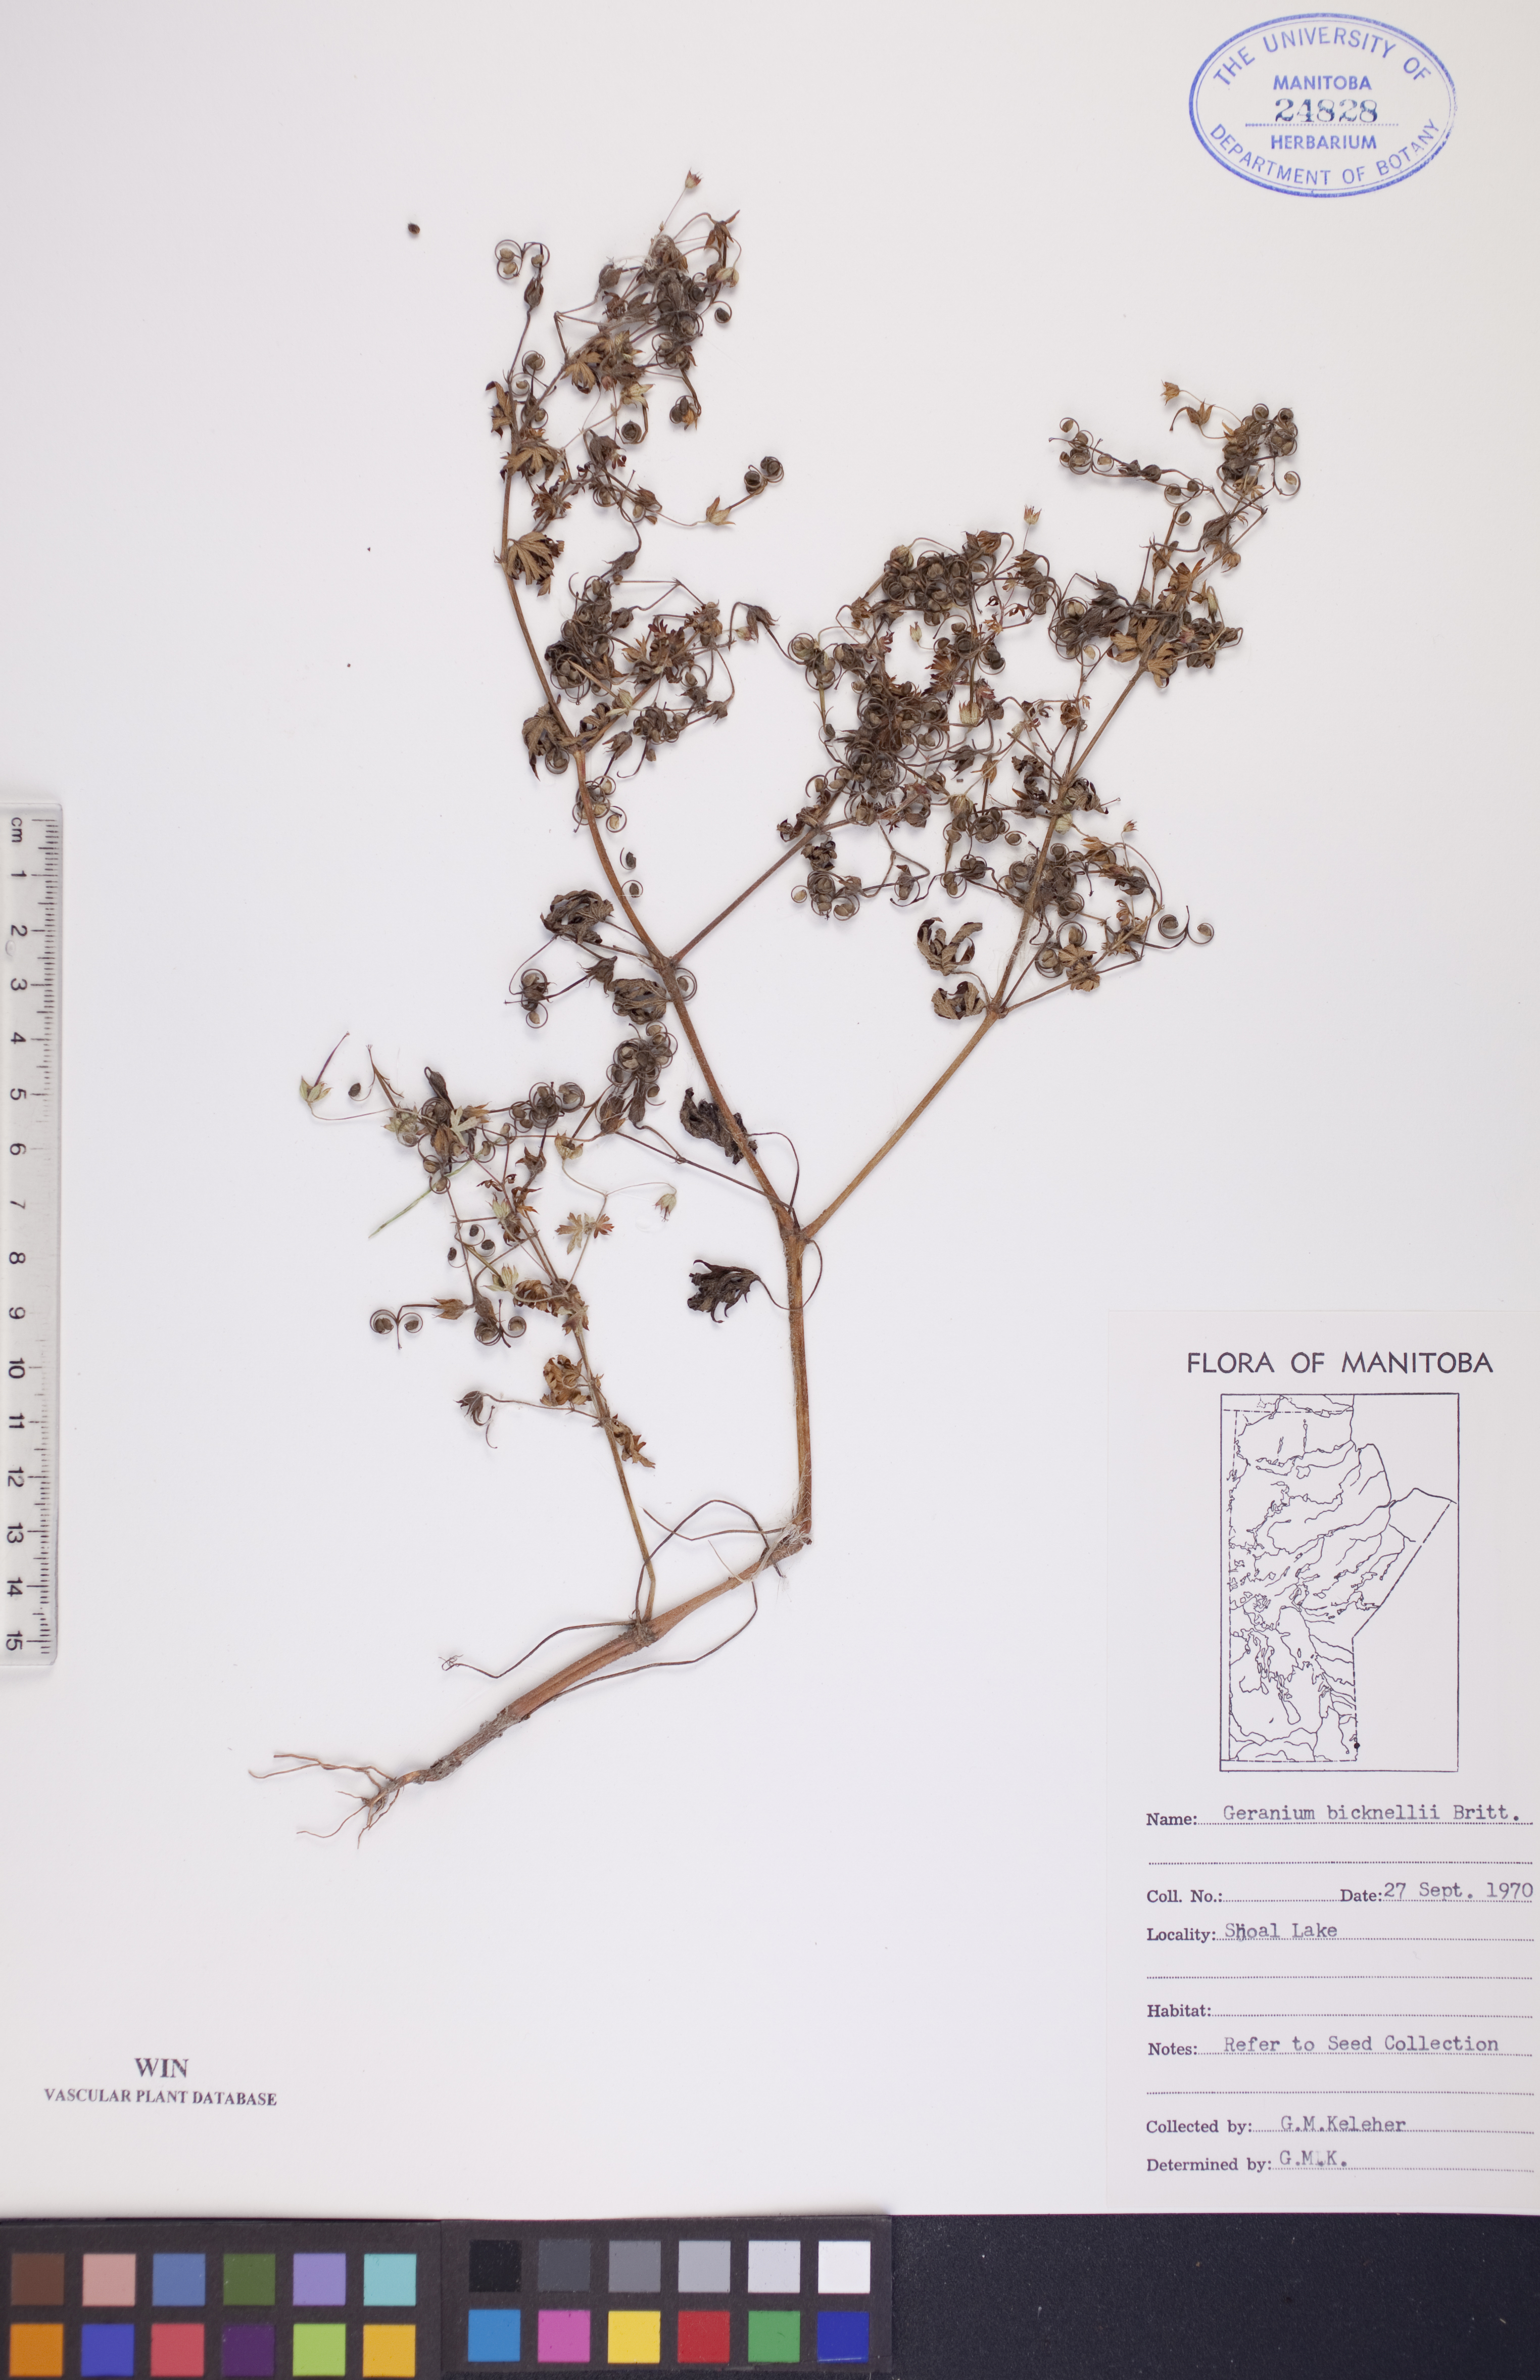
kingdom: Plantae
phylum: Tracheophyta
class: Magnoliopsida
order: Geraniales
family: Geraniaceae
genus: Geranium
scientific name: Geranium bicknellii
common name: Bicknell's cranesbill
